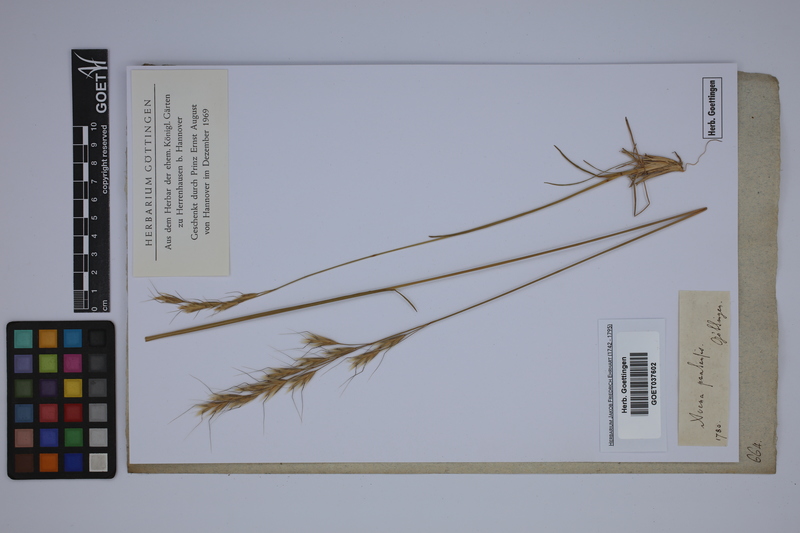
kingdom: Plantae
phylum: Tracheophyta
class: Liliopsida
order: Poales
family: Poaceae
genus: Helictochloa
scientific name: Helictochloa pratensis
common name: Meadow oat grass
